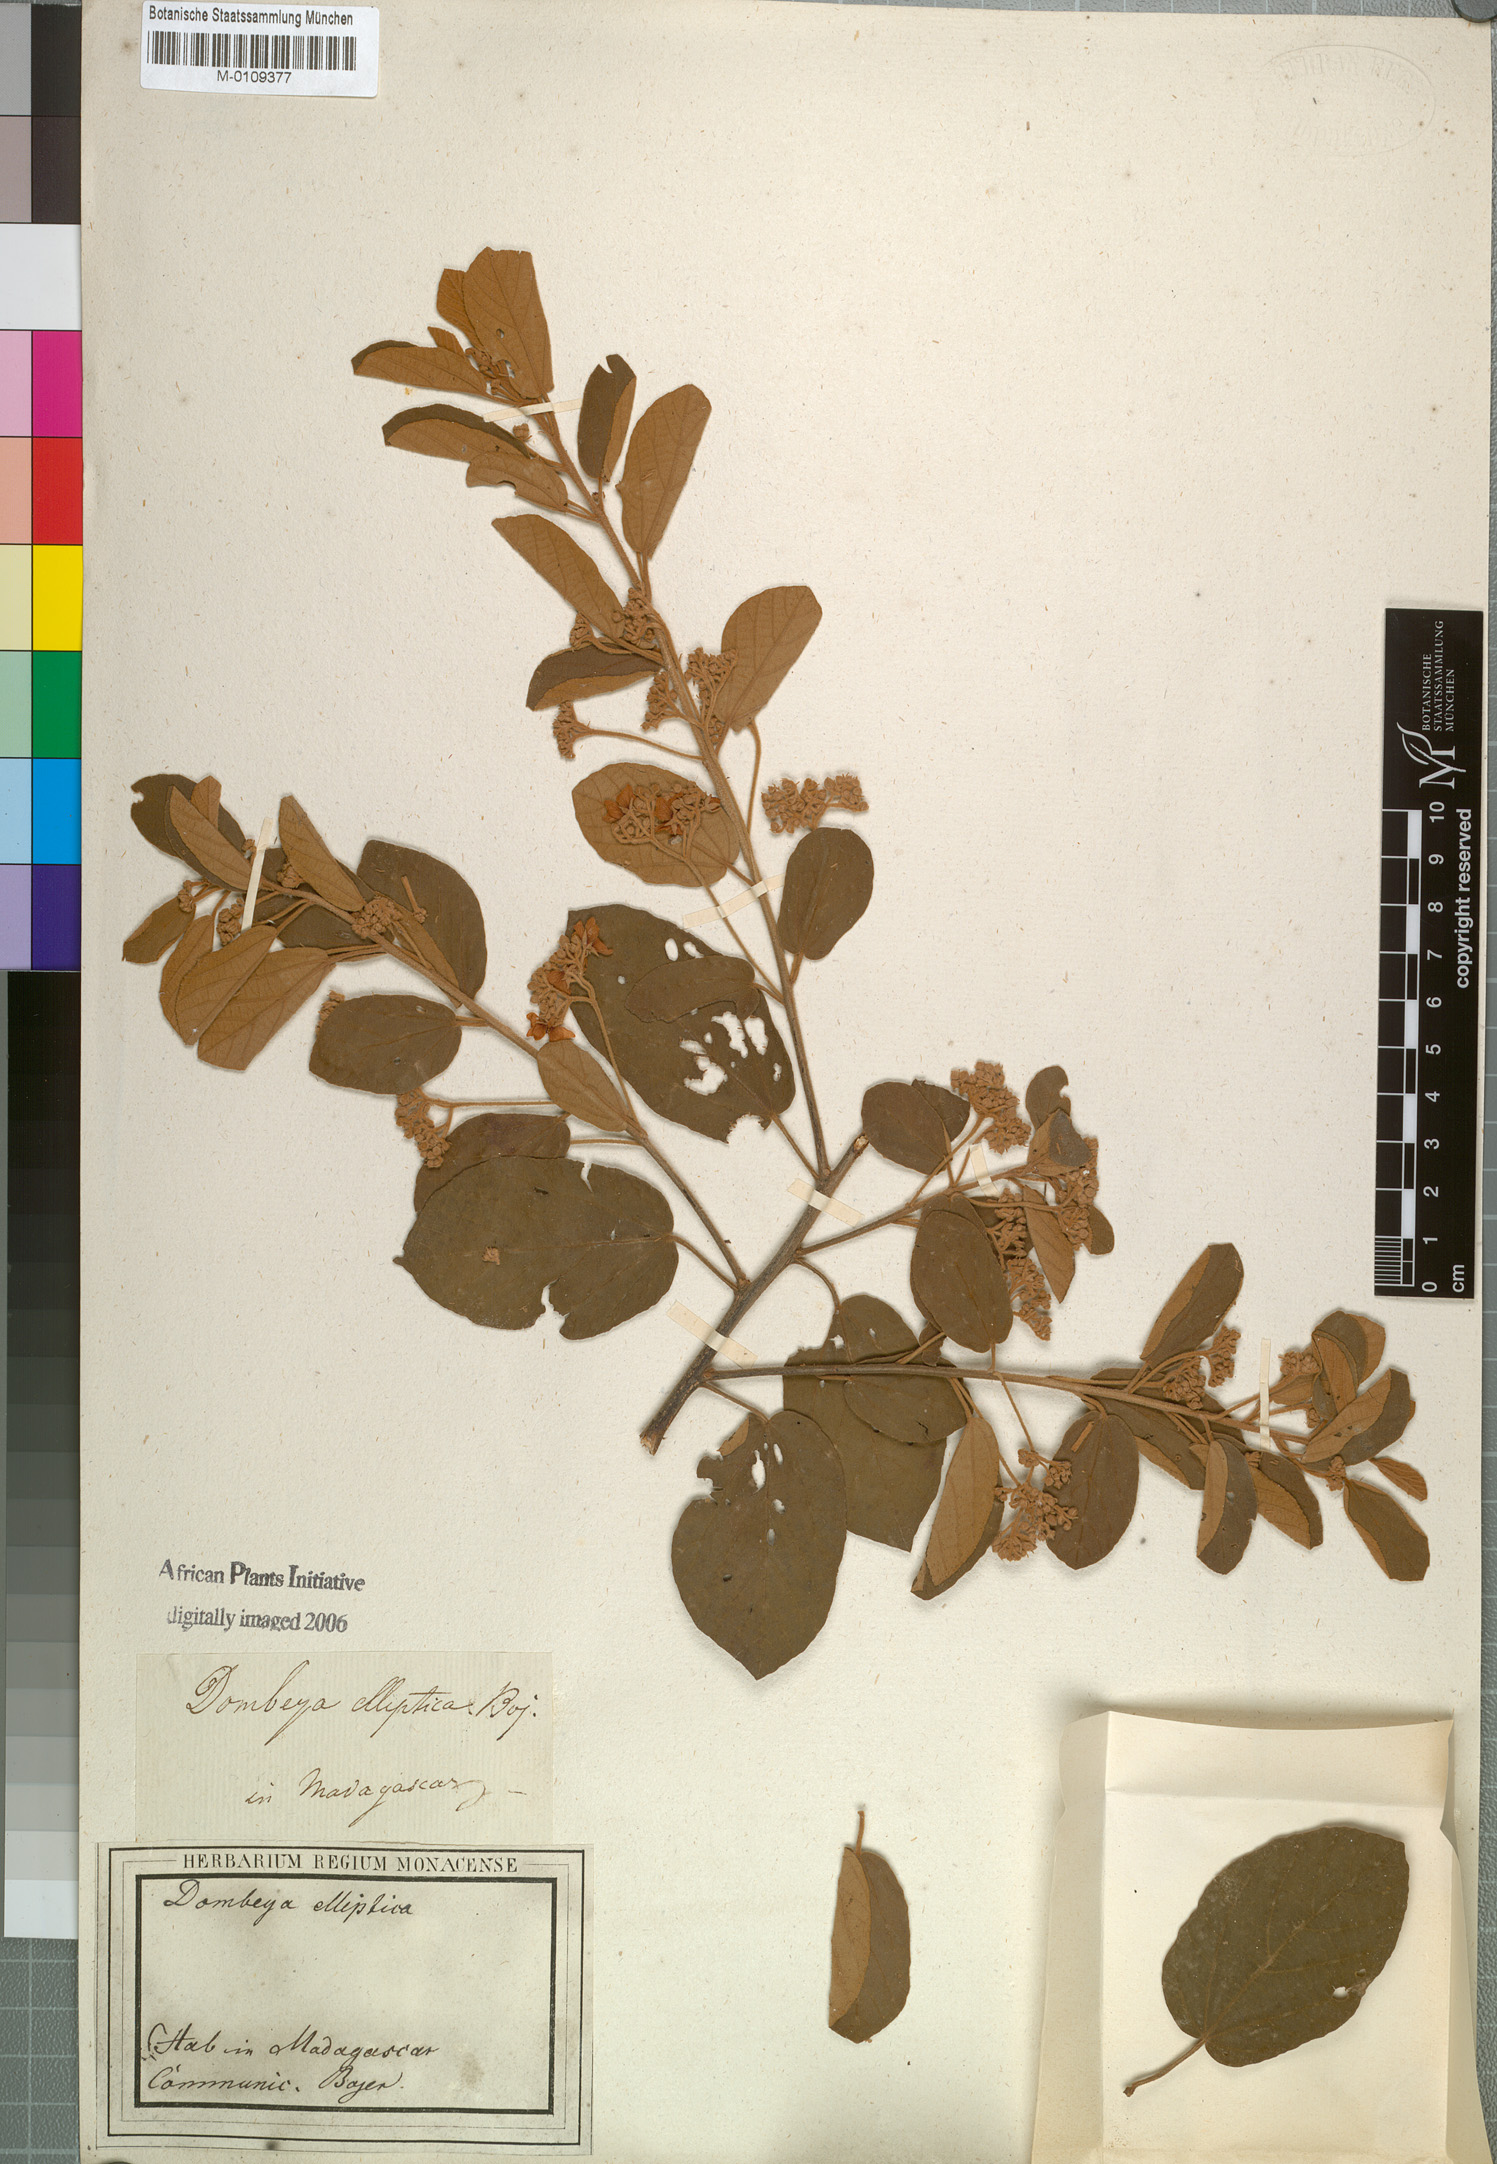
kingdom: Plantae
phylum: Tracheophyta
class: Magnoliopsida
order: Malvales
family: Malvaceae
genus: Dombeya
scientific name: Dombeya elliptica
